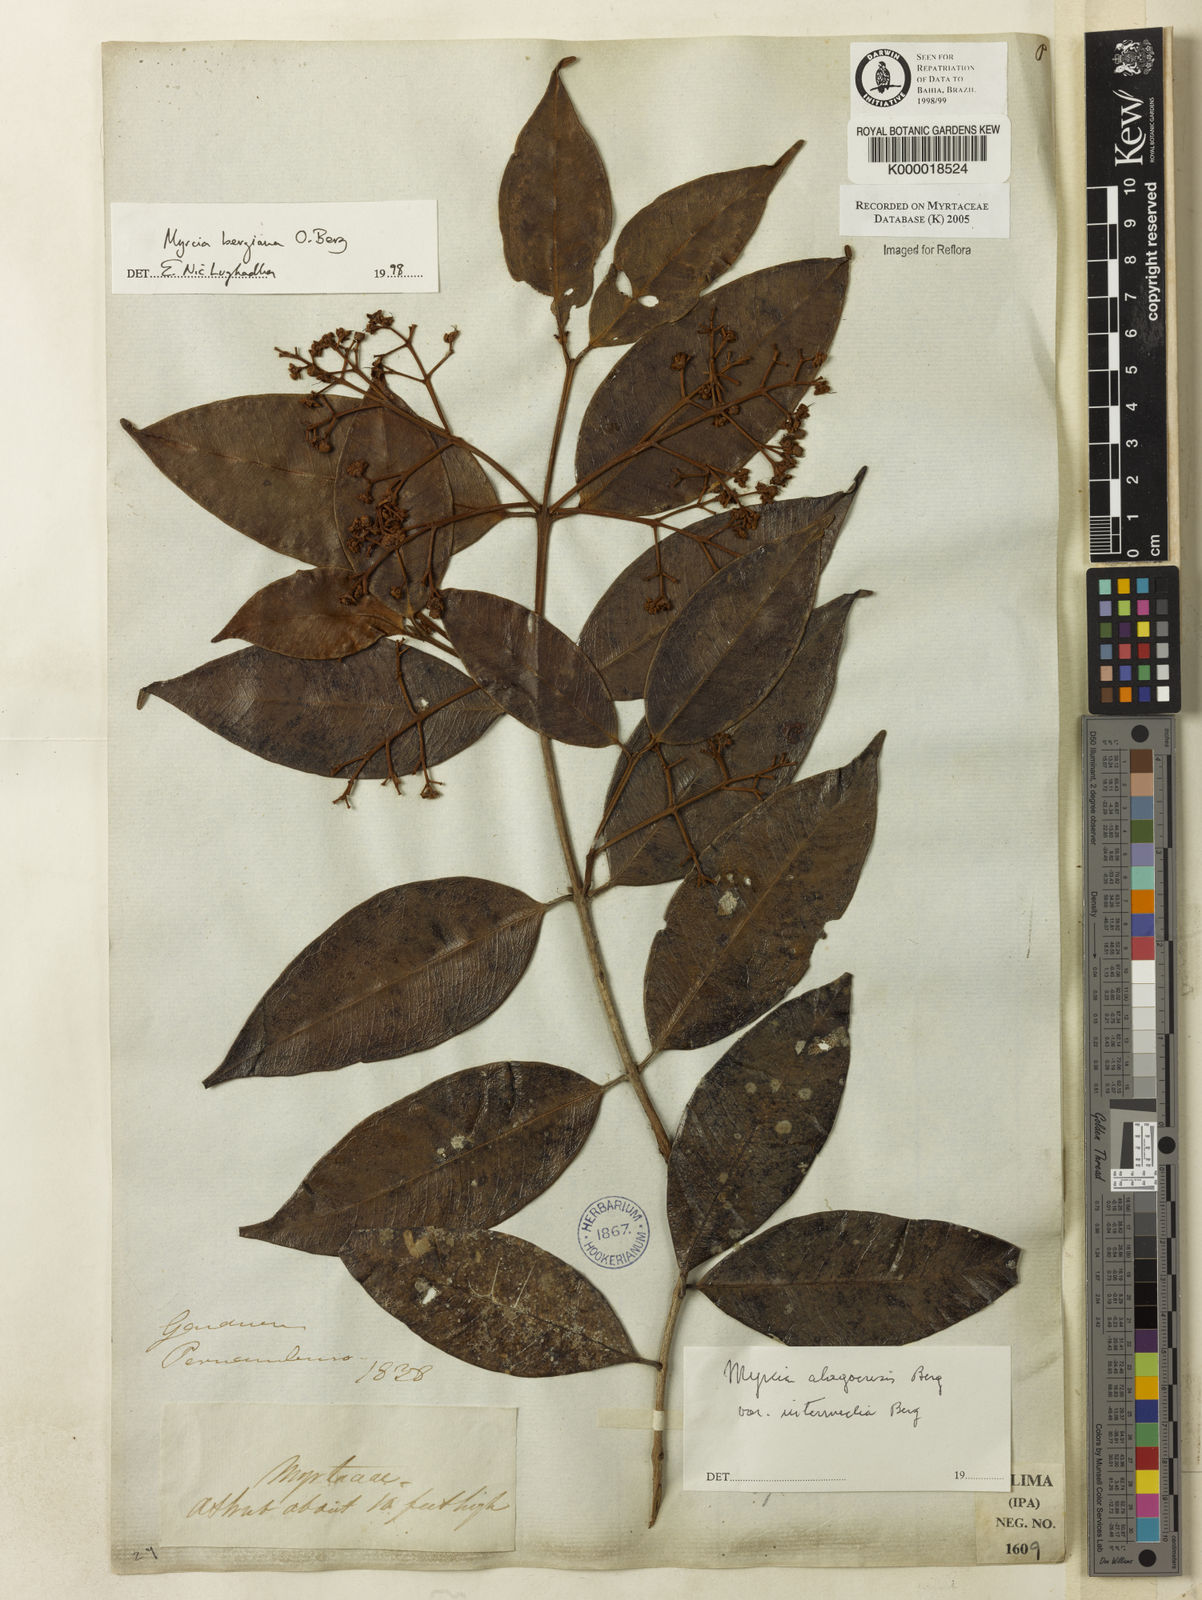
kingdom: Plantae
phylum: Tracheophyta
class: Magnoliopsida
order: Myrtales
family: Myrtaceae
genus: Myrcia
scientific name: Myrcia bergiana
